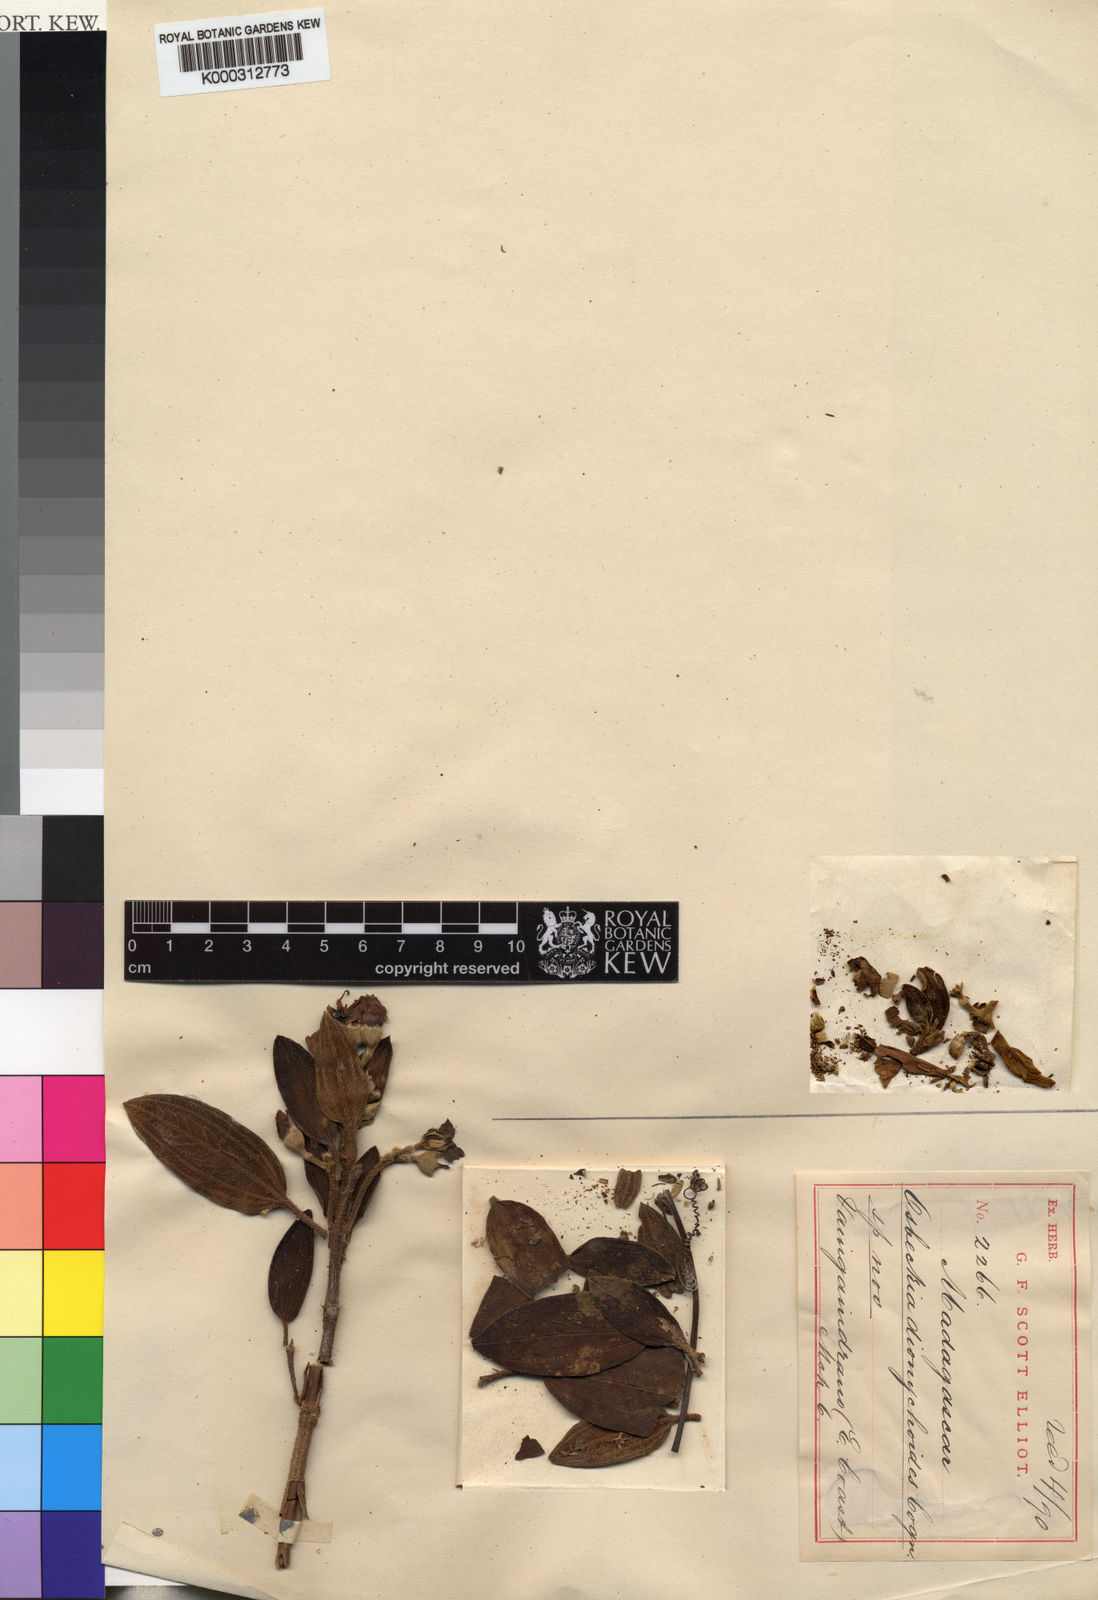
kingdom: Plantae
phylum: Tracheophyta
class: Magnoliopsida
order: Myrtales
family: Melastomataceae
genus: Rousseauxia
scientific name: Rousseauxia
